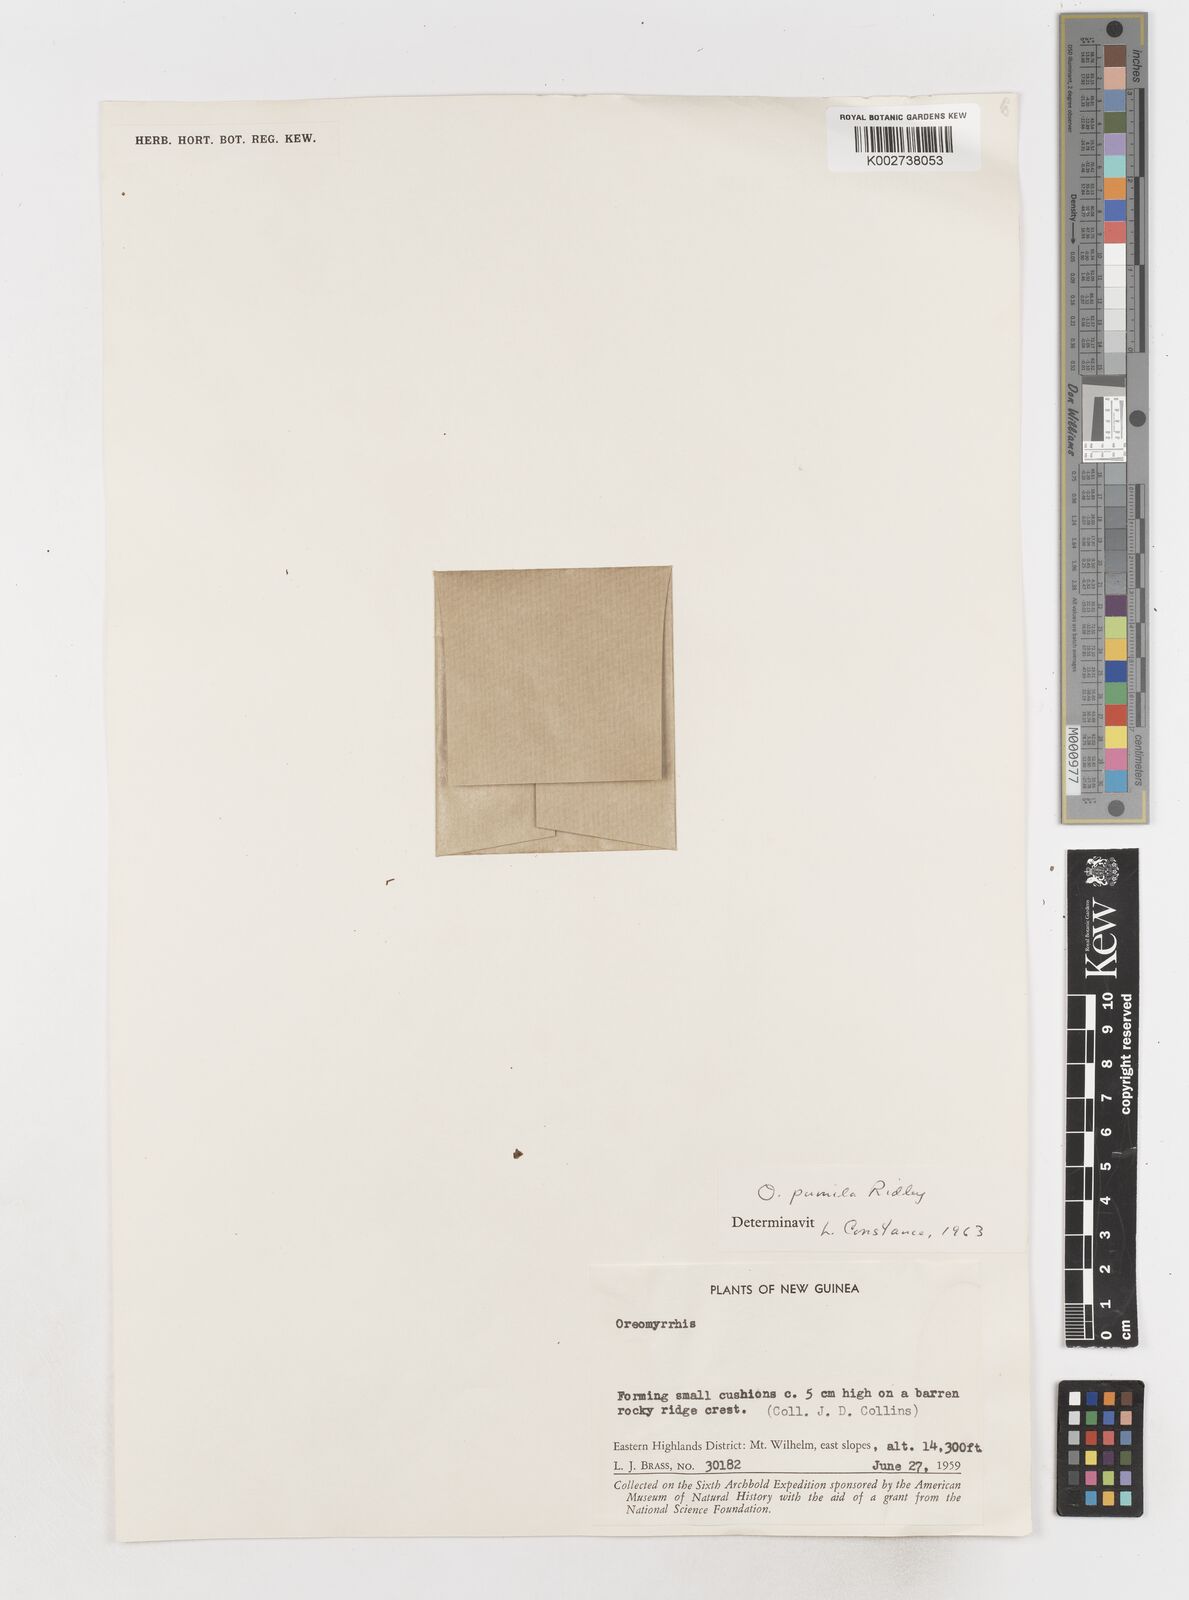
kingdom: Plantae
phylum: Tracheophyta
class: Magnoliopsida
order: Apiales
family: Apiaceae
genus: Chaerophyllum
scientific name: Chaerophyllum pumilum
